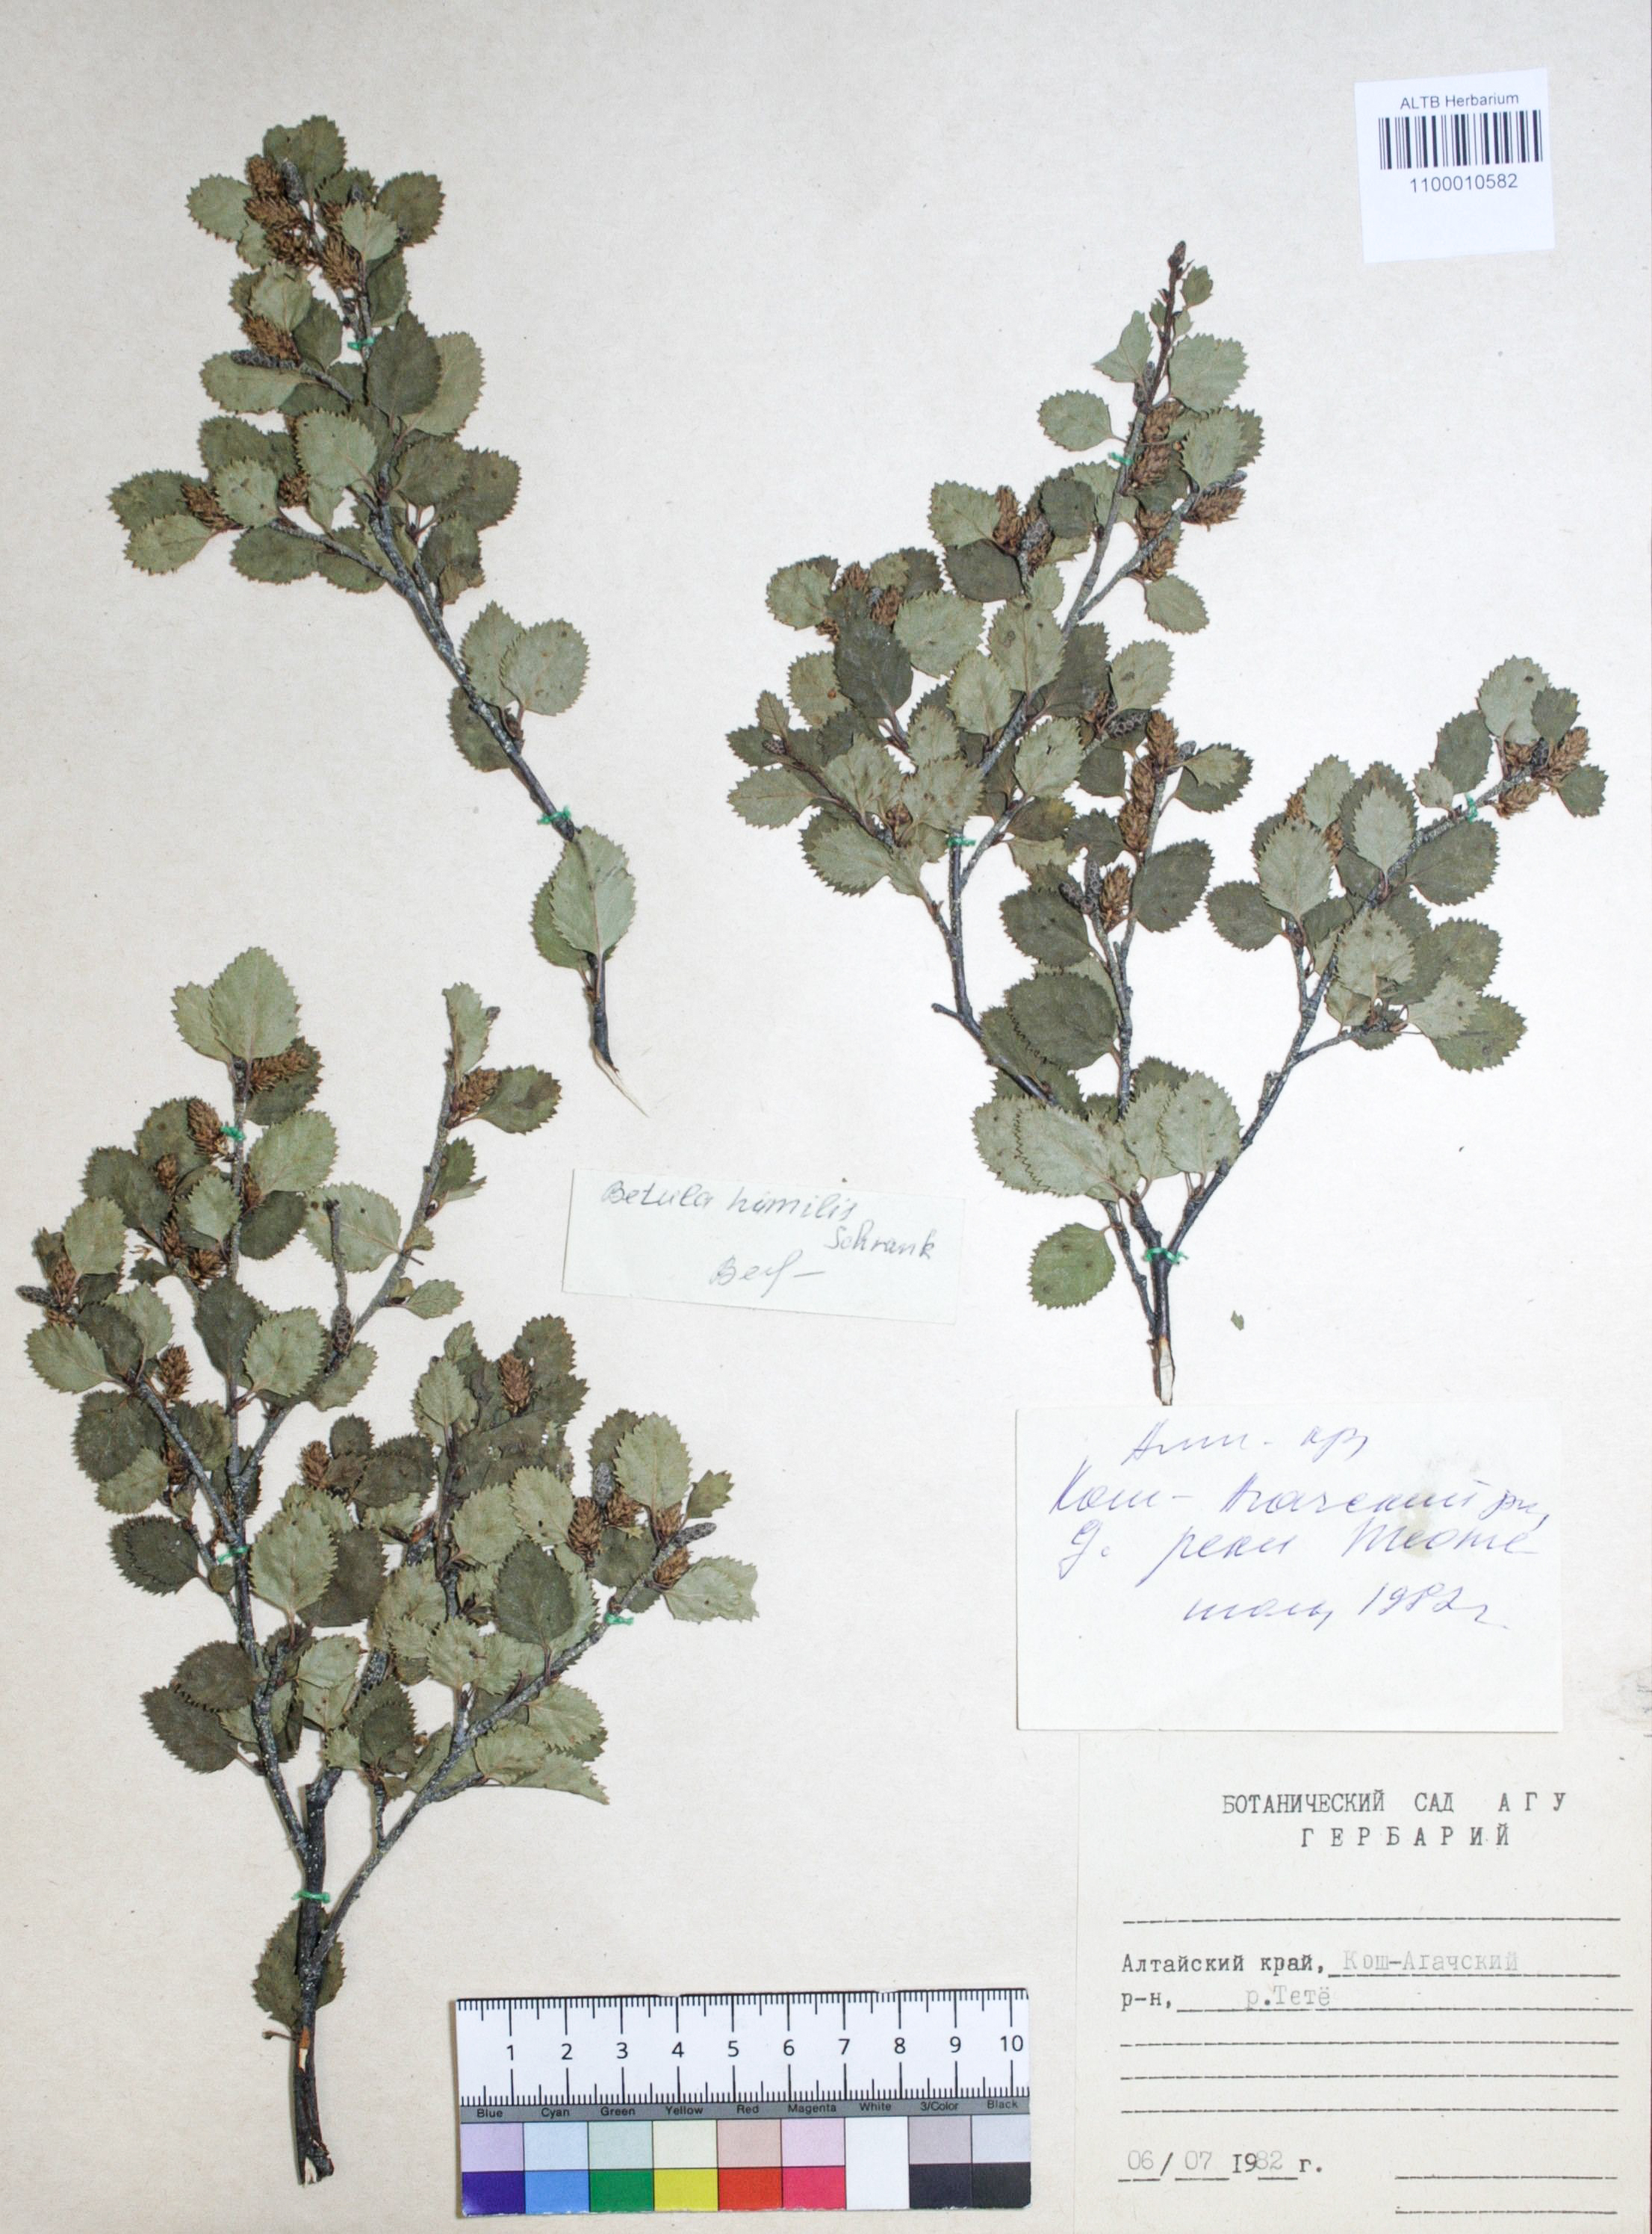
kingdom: Plantae
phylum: Tracheophyta
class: Magnoliopsida
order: Fagales
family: Betulaceae
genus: Betula
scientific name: Betula humilis
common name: Shrubby birch
